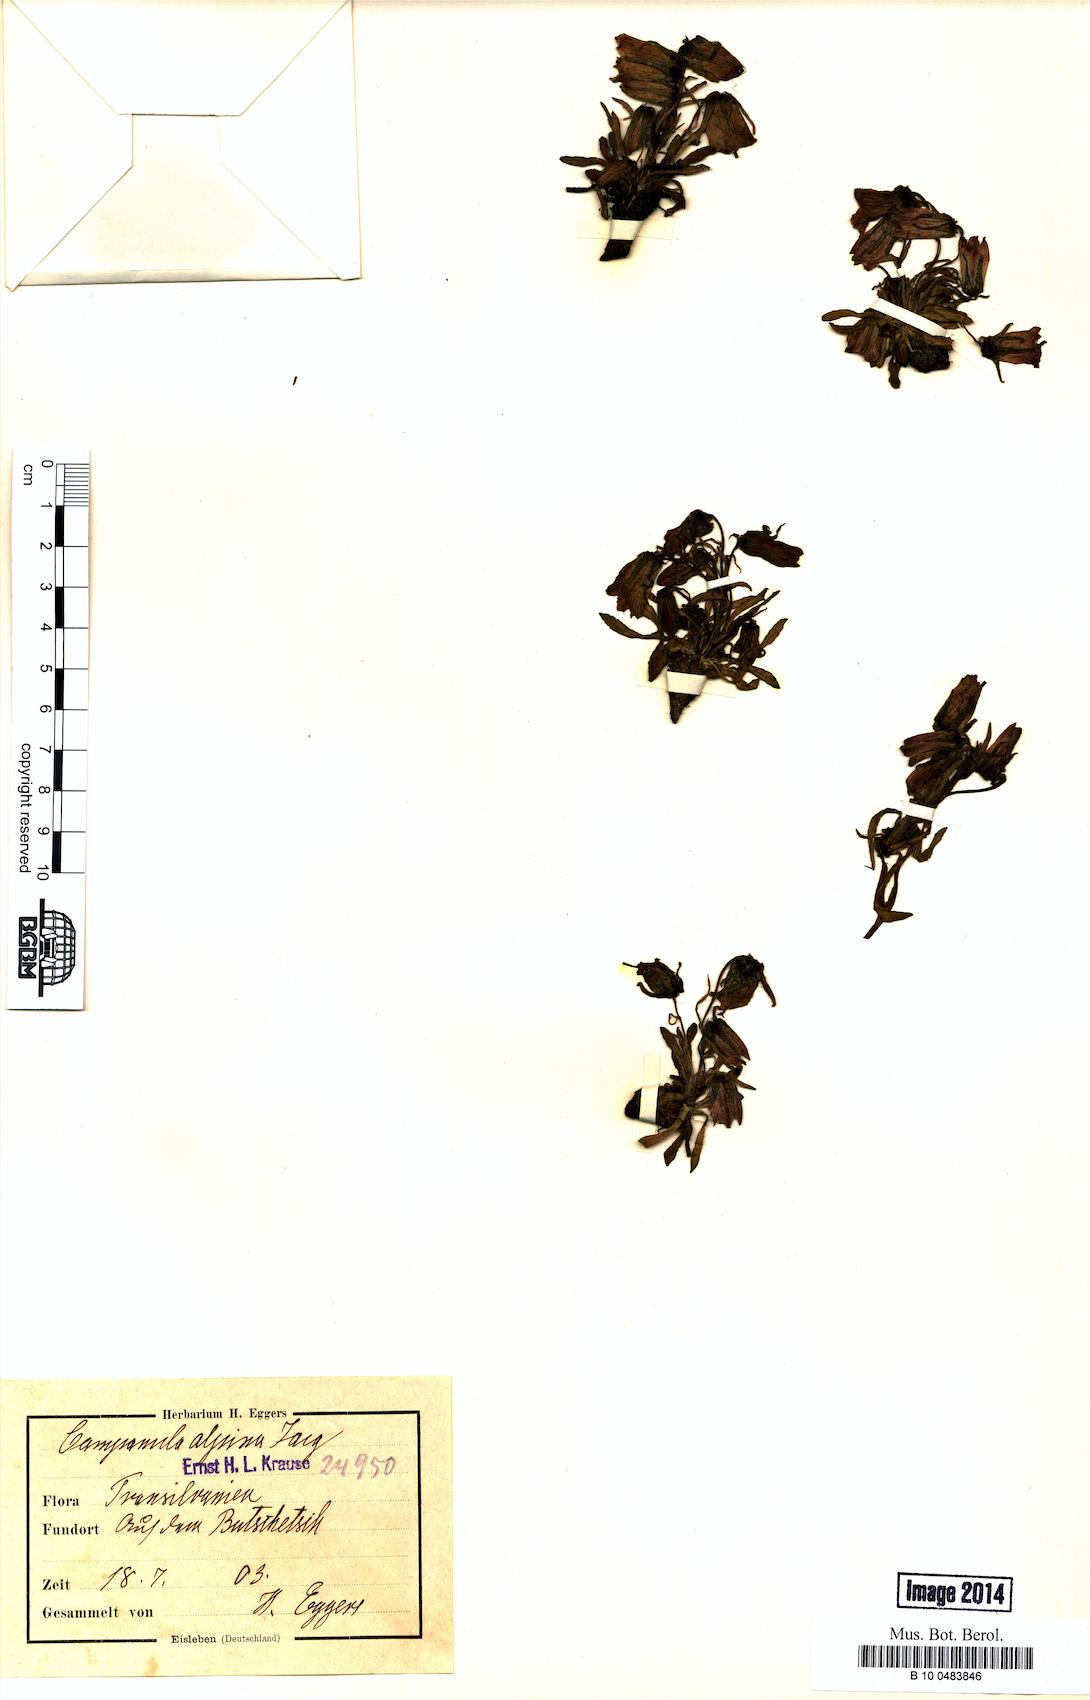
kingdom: Plantae
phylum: Tracheophyta
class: Magnoliopsida
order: Asterales
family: Campanulaceae
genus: Campanula
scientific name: Campanula alpina
